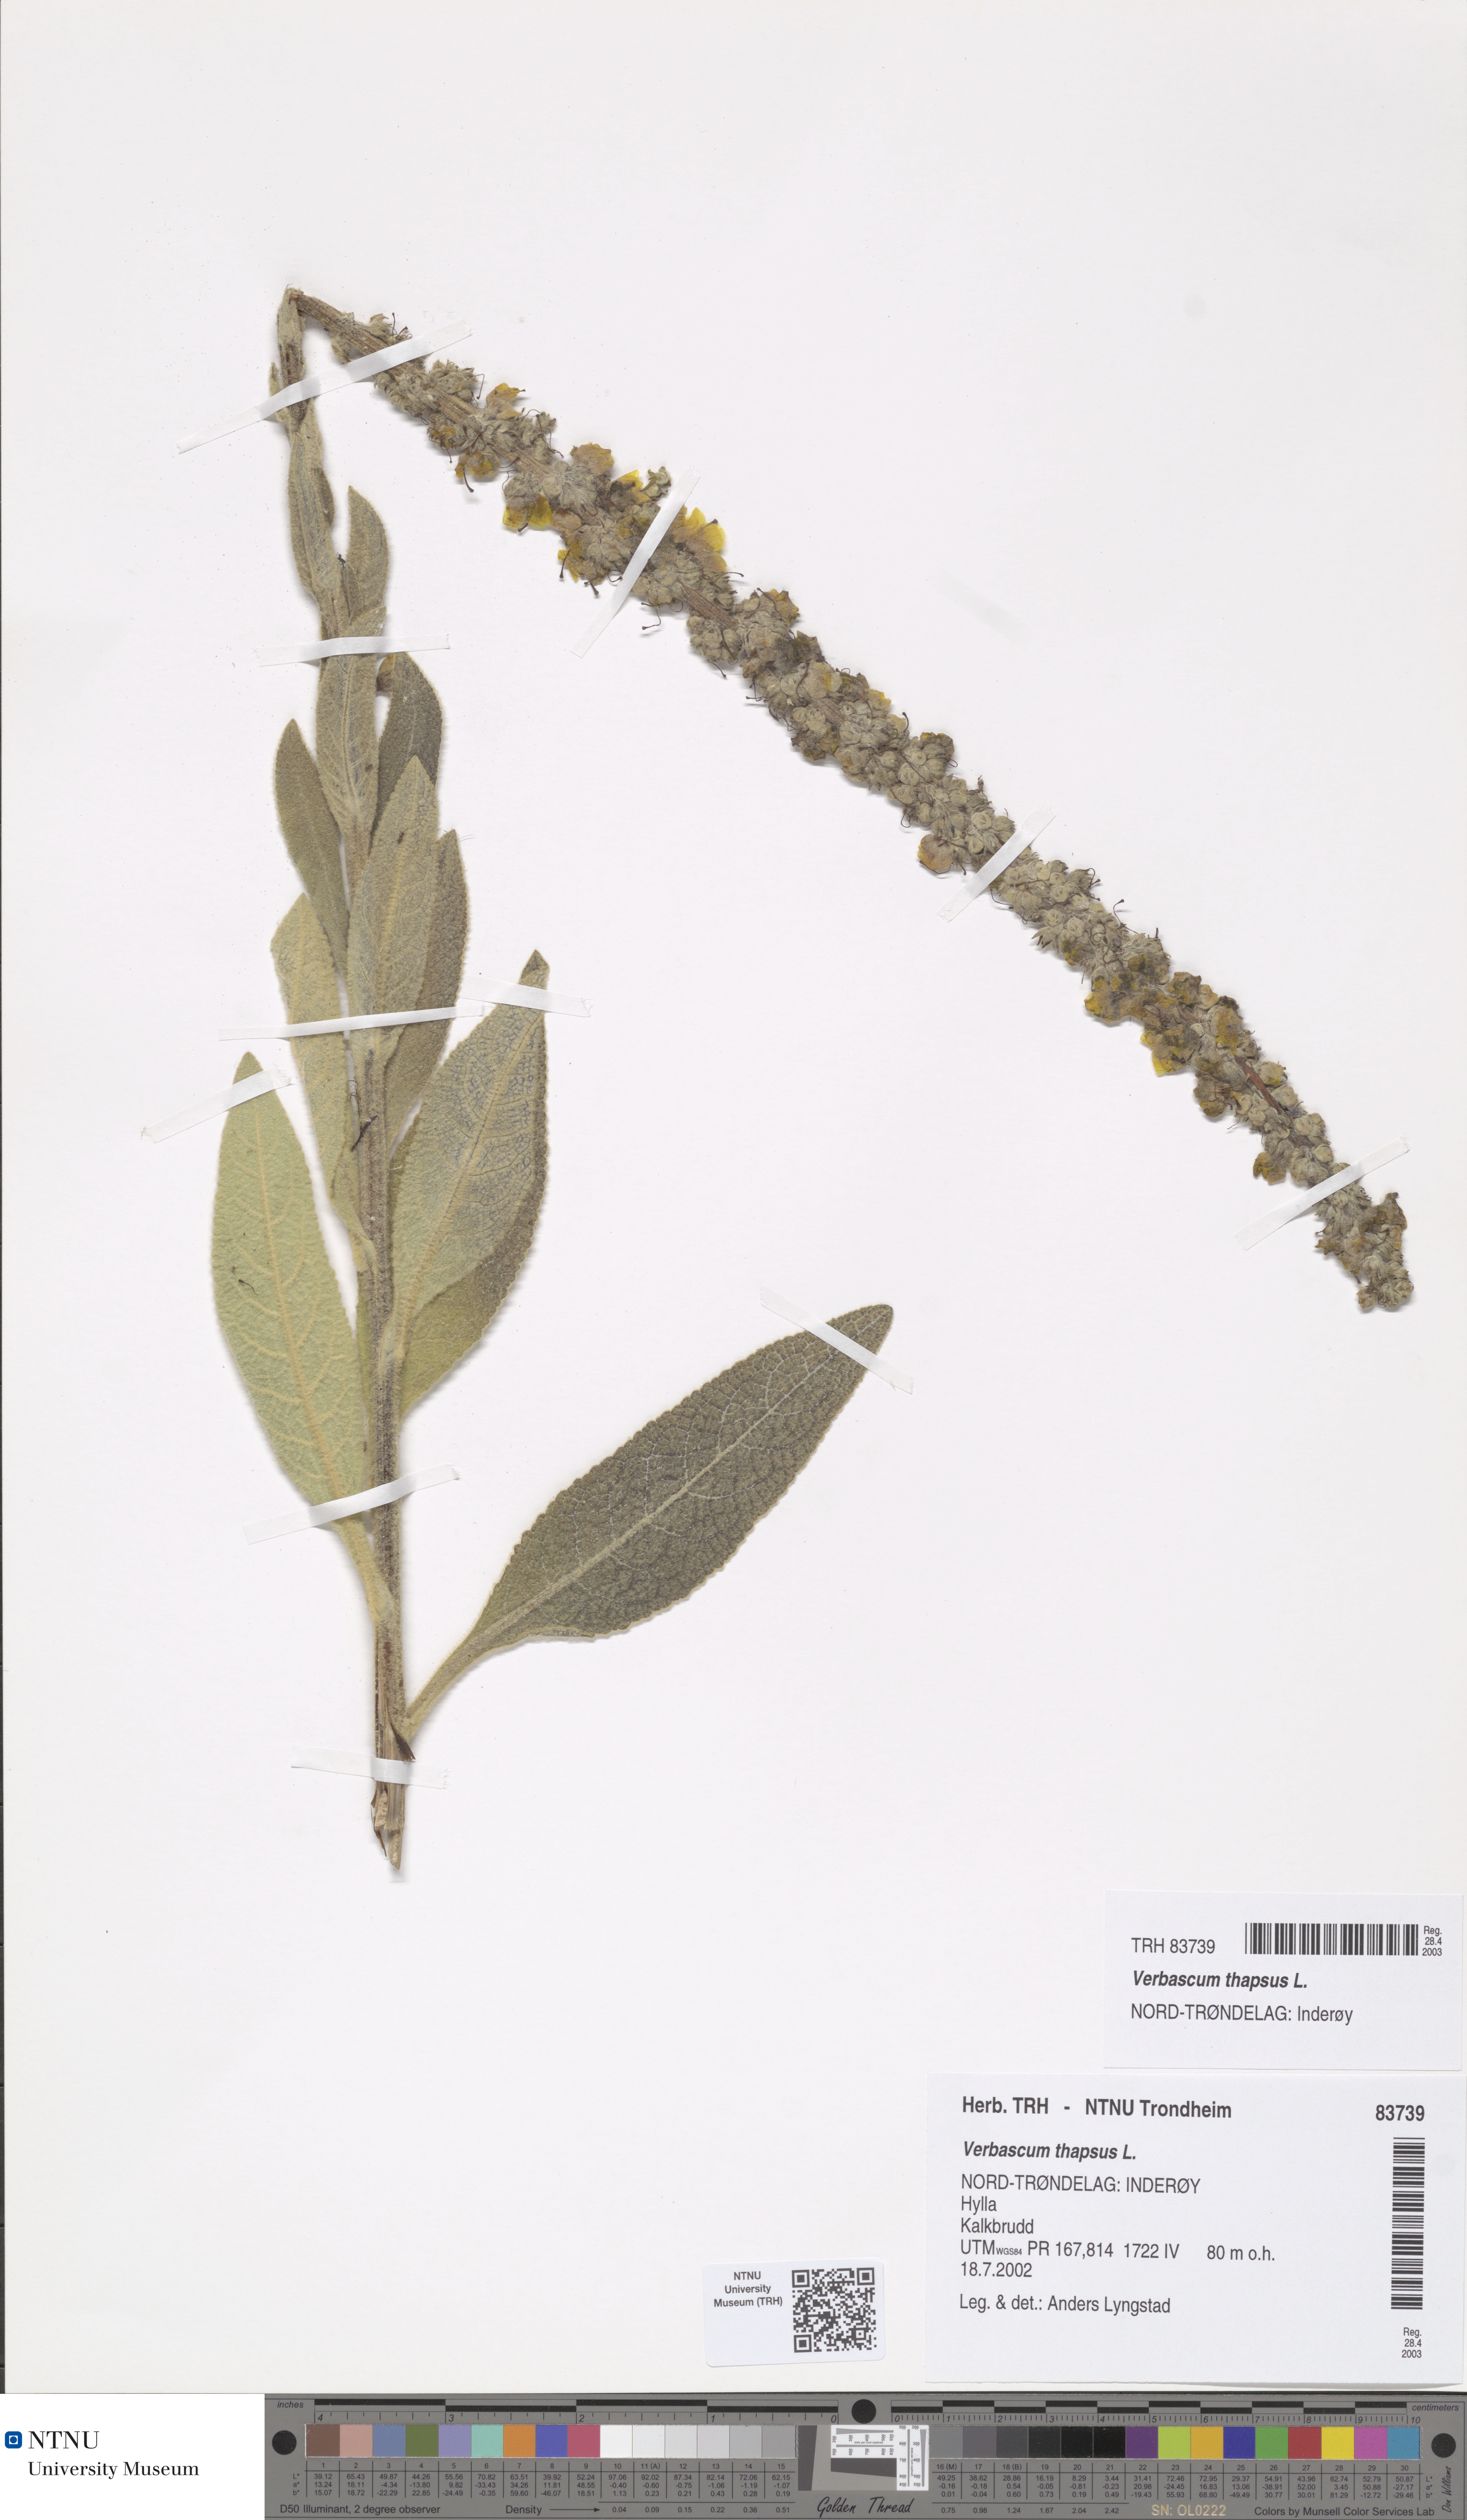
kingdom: Plantae
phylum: Tracheophyta
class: Magnoliopsida
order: Lamiales
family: Scrophulariaceae
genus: Verbascum
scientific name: Verbascum thapsus
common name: Common mullein
